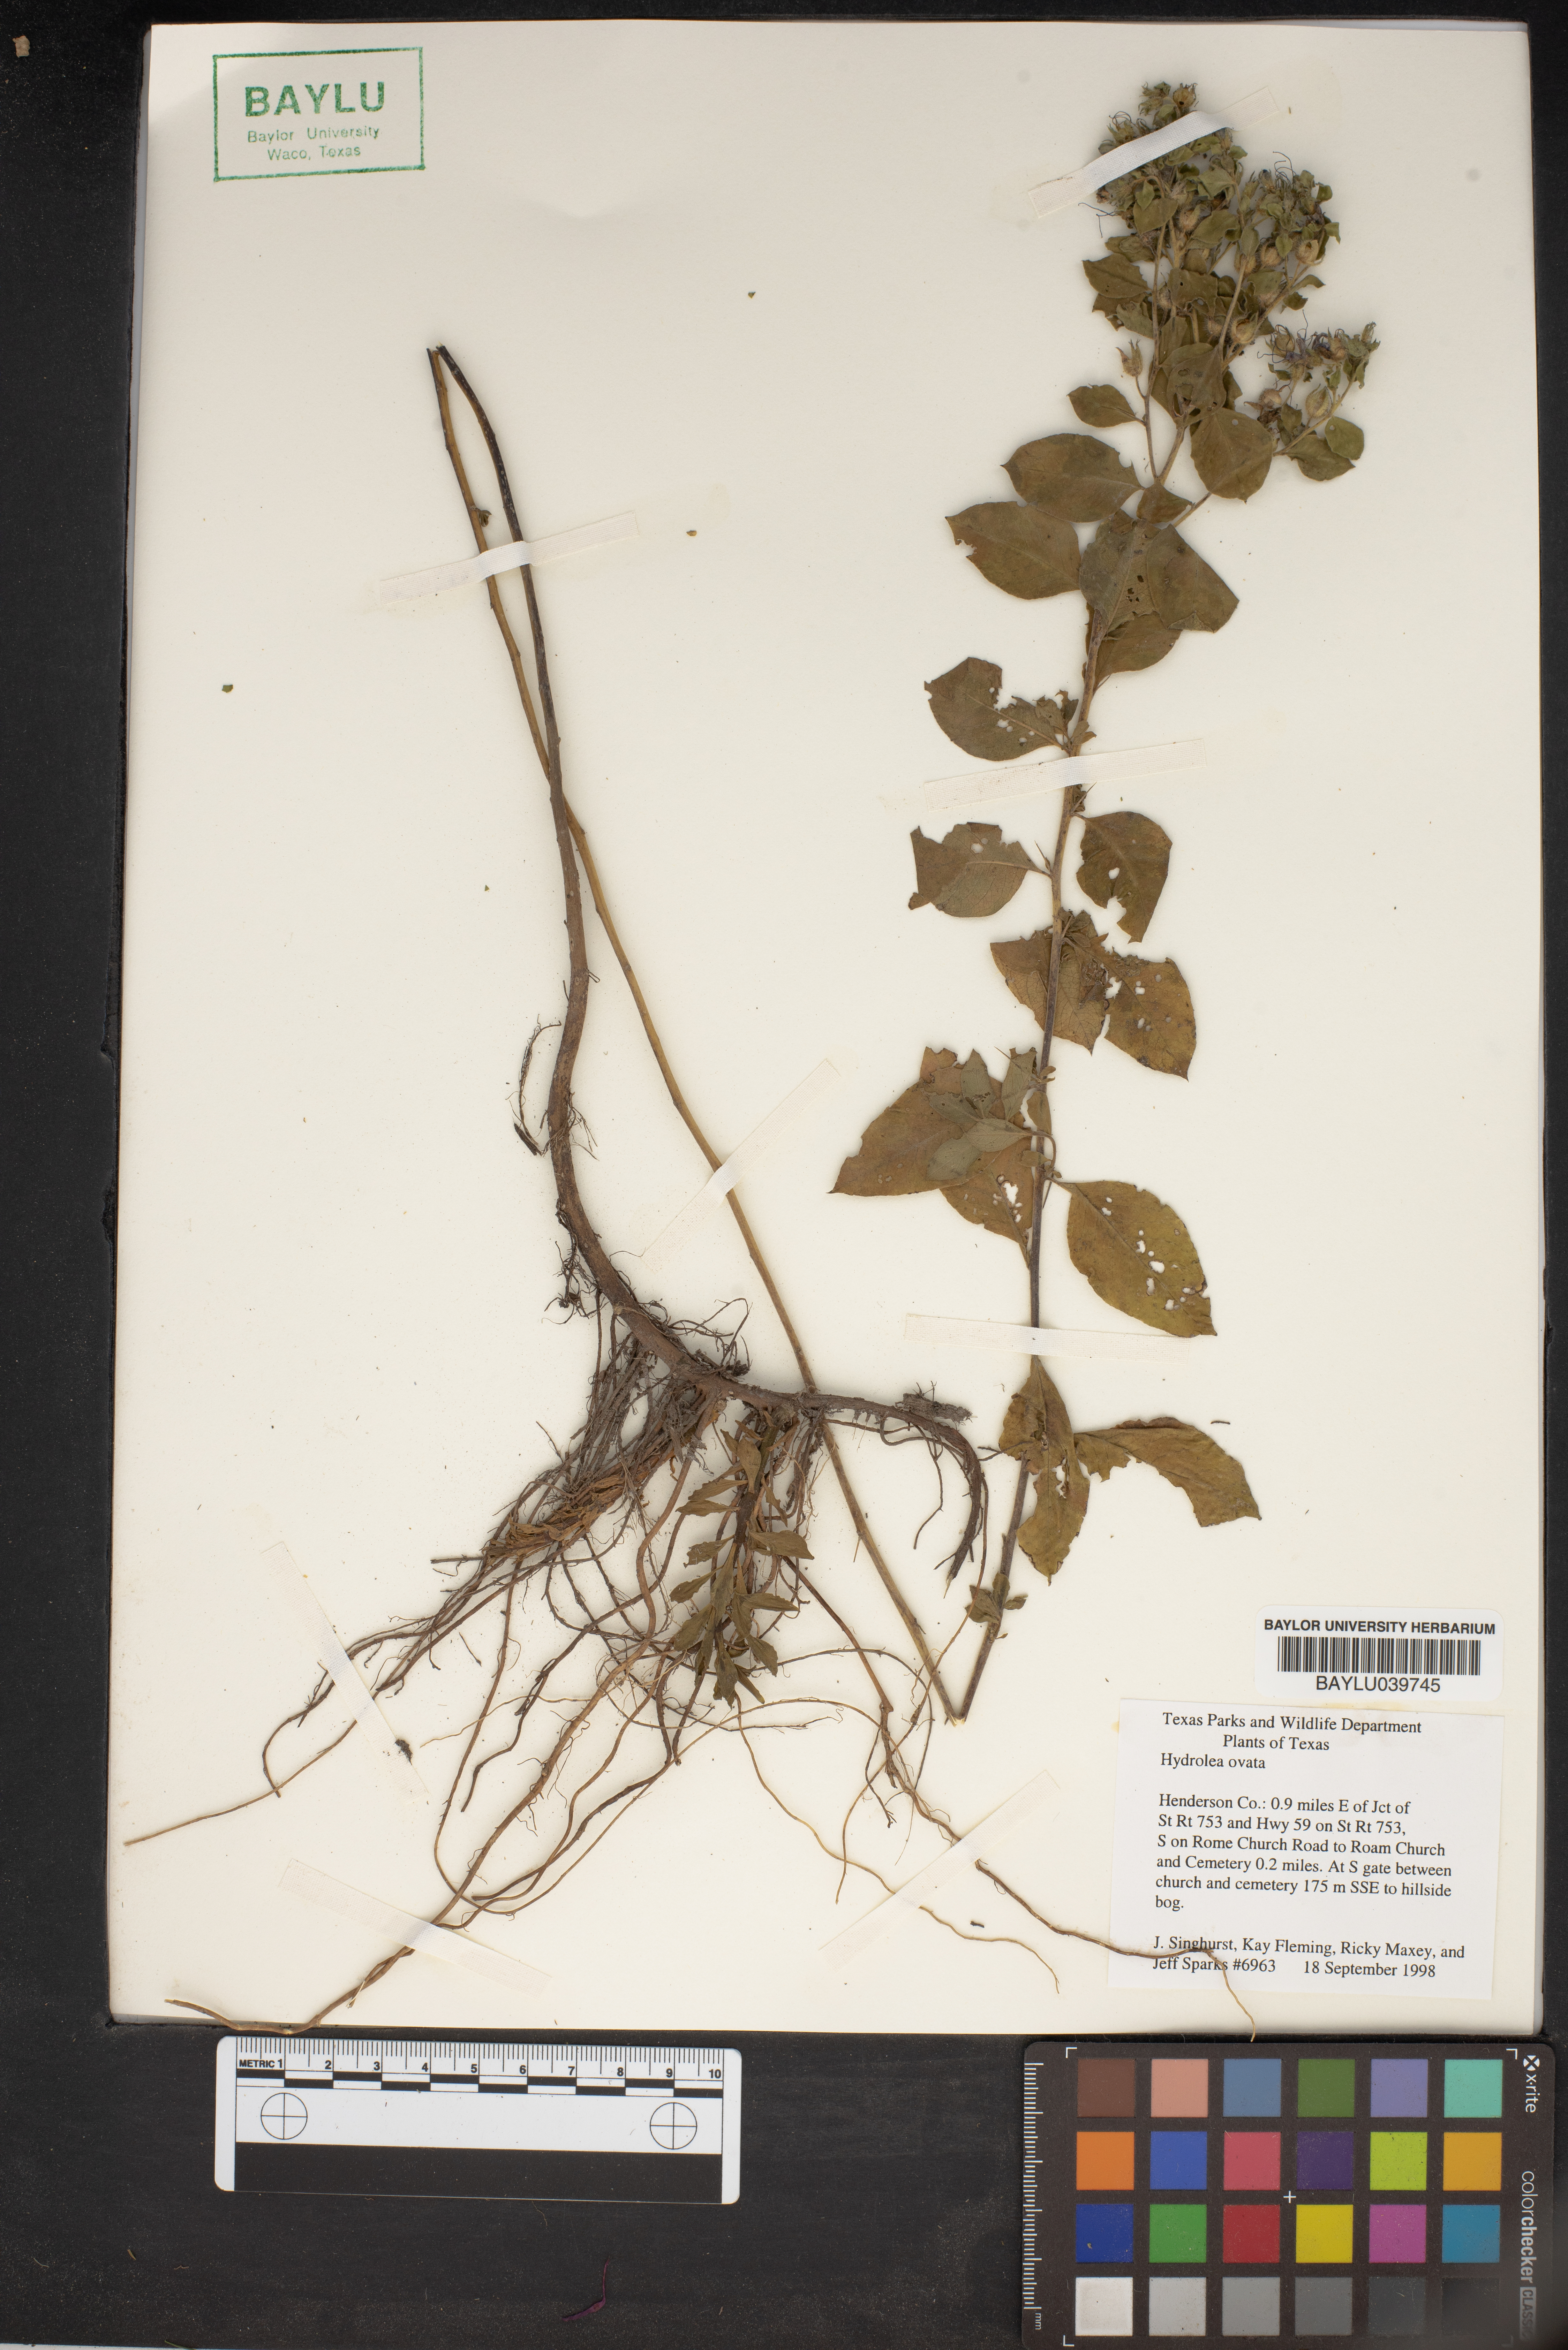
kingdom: Plantae
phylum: Tracheophyta
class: Magnoliopsida
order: Solanales
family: Hydroleaceae
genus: Hydrolea
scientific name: Hydrolea ovata
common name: Ovate false fiddleleaf
